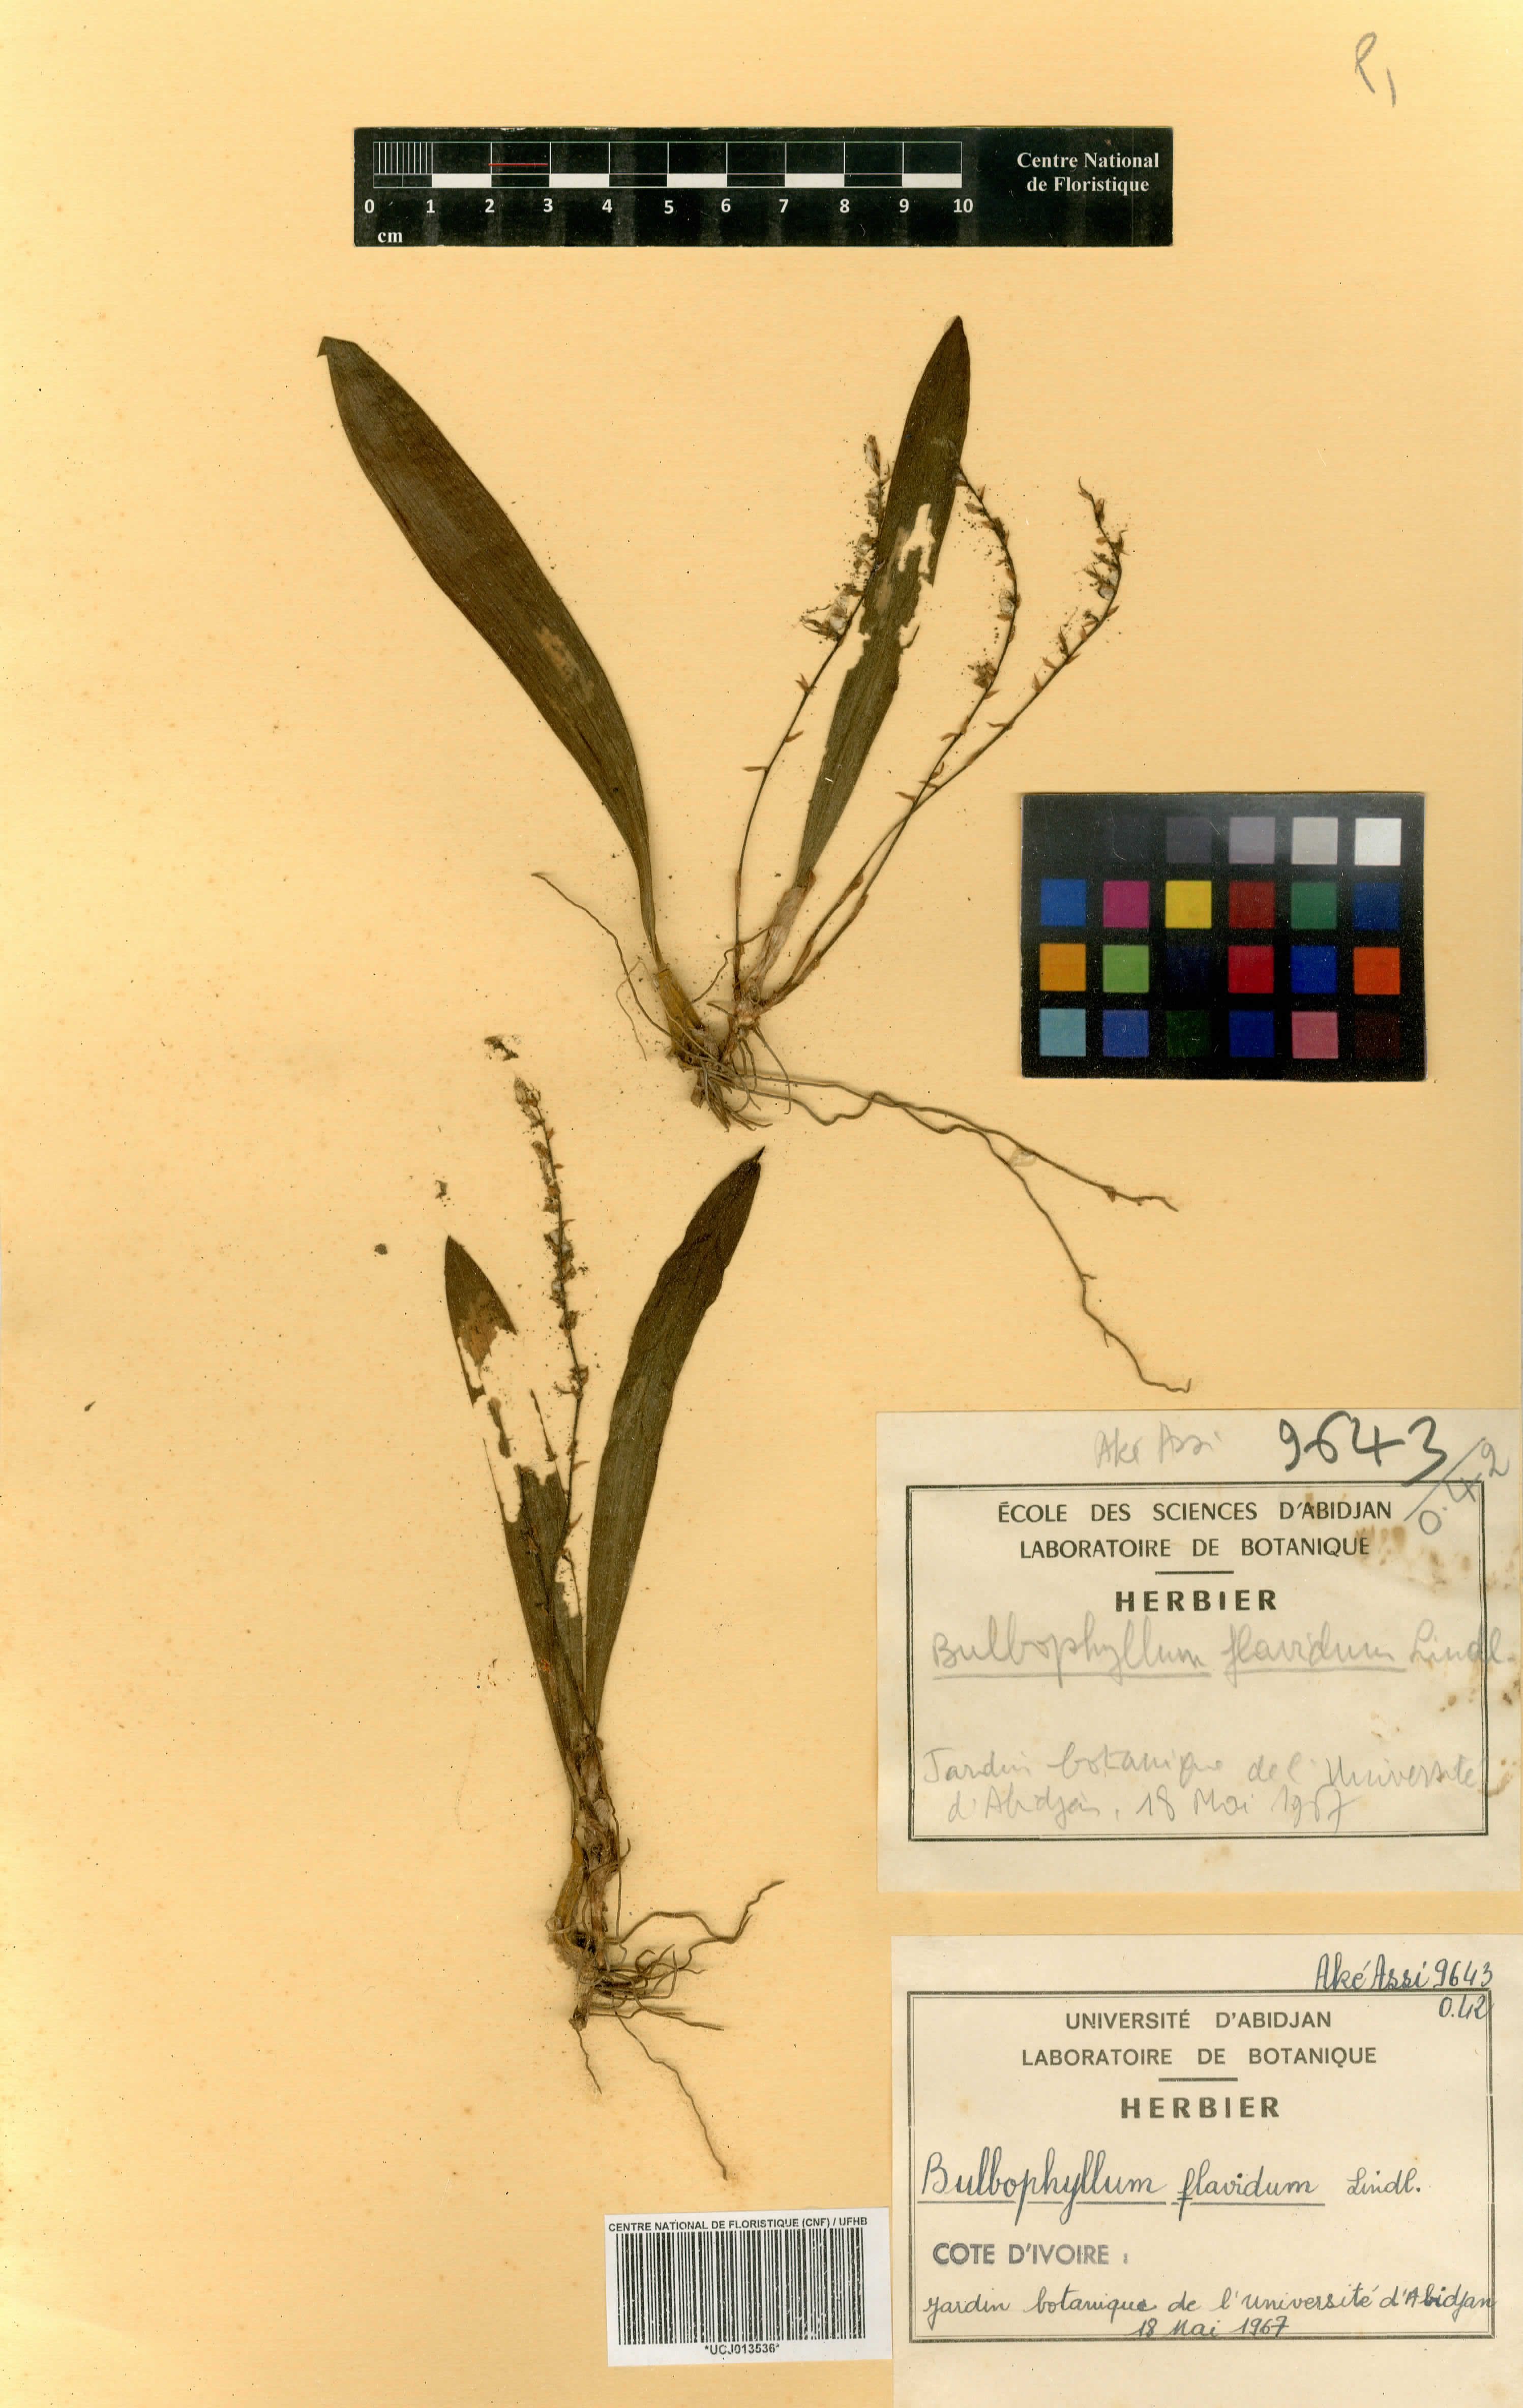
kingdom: Plantae
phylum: Tracheophyta
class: Liliopsida
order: Asparagales
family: Orchidaceae
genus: Bulbophyllum
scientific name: Bulbophyllum pumilum
